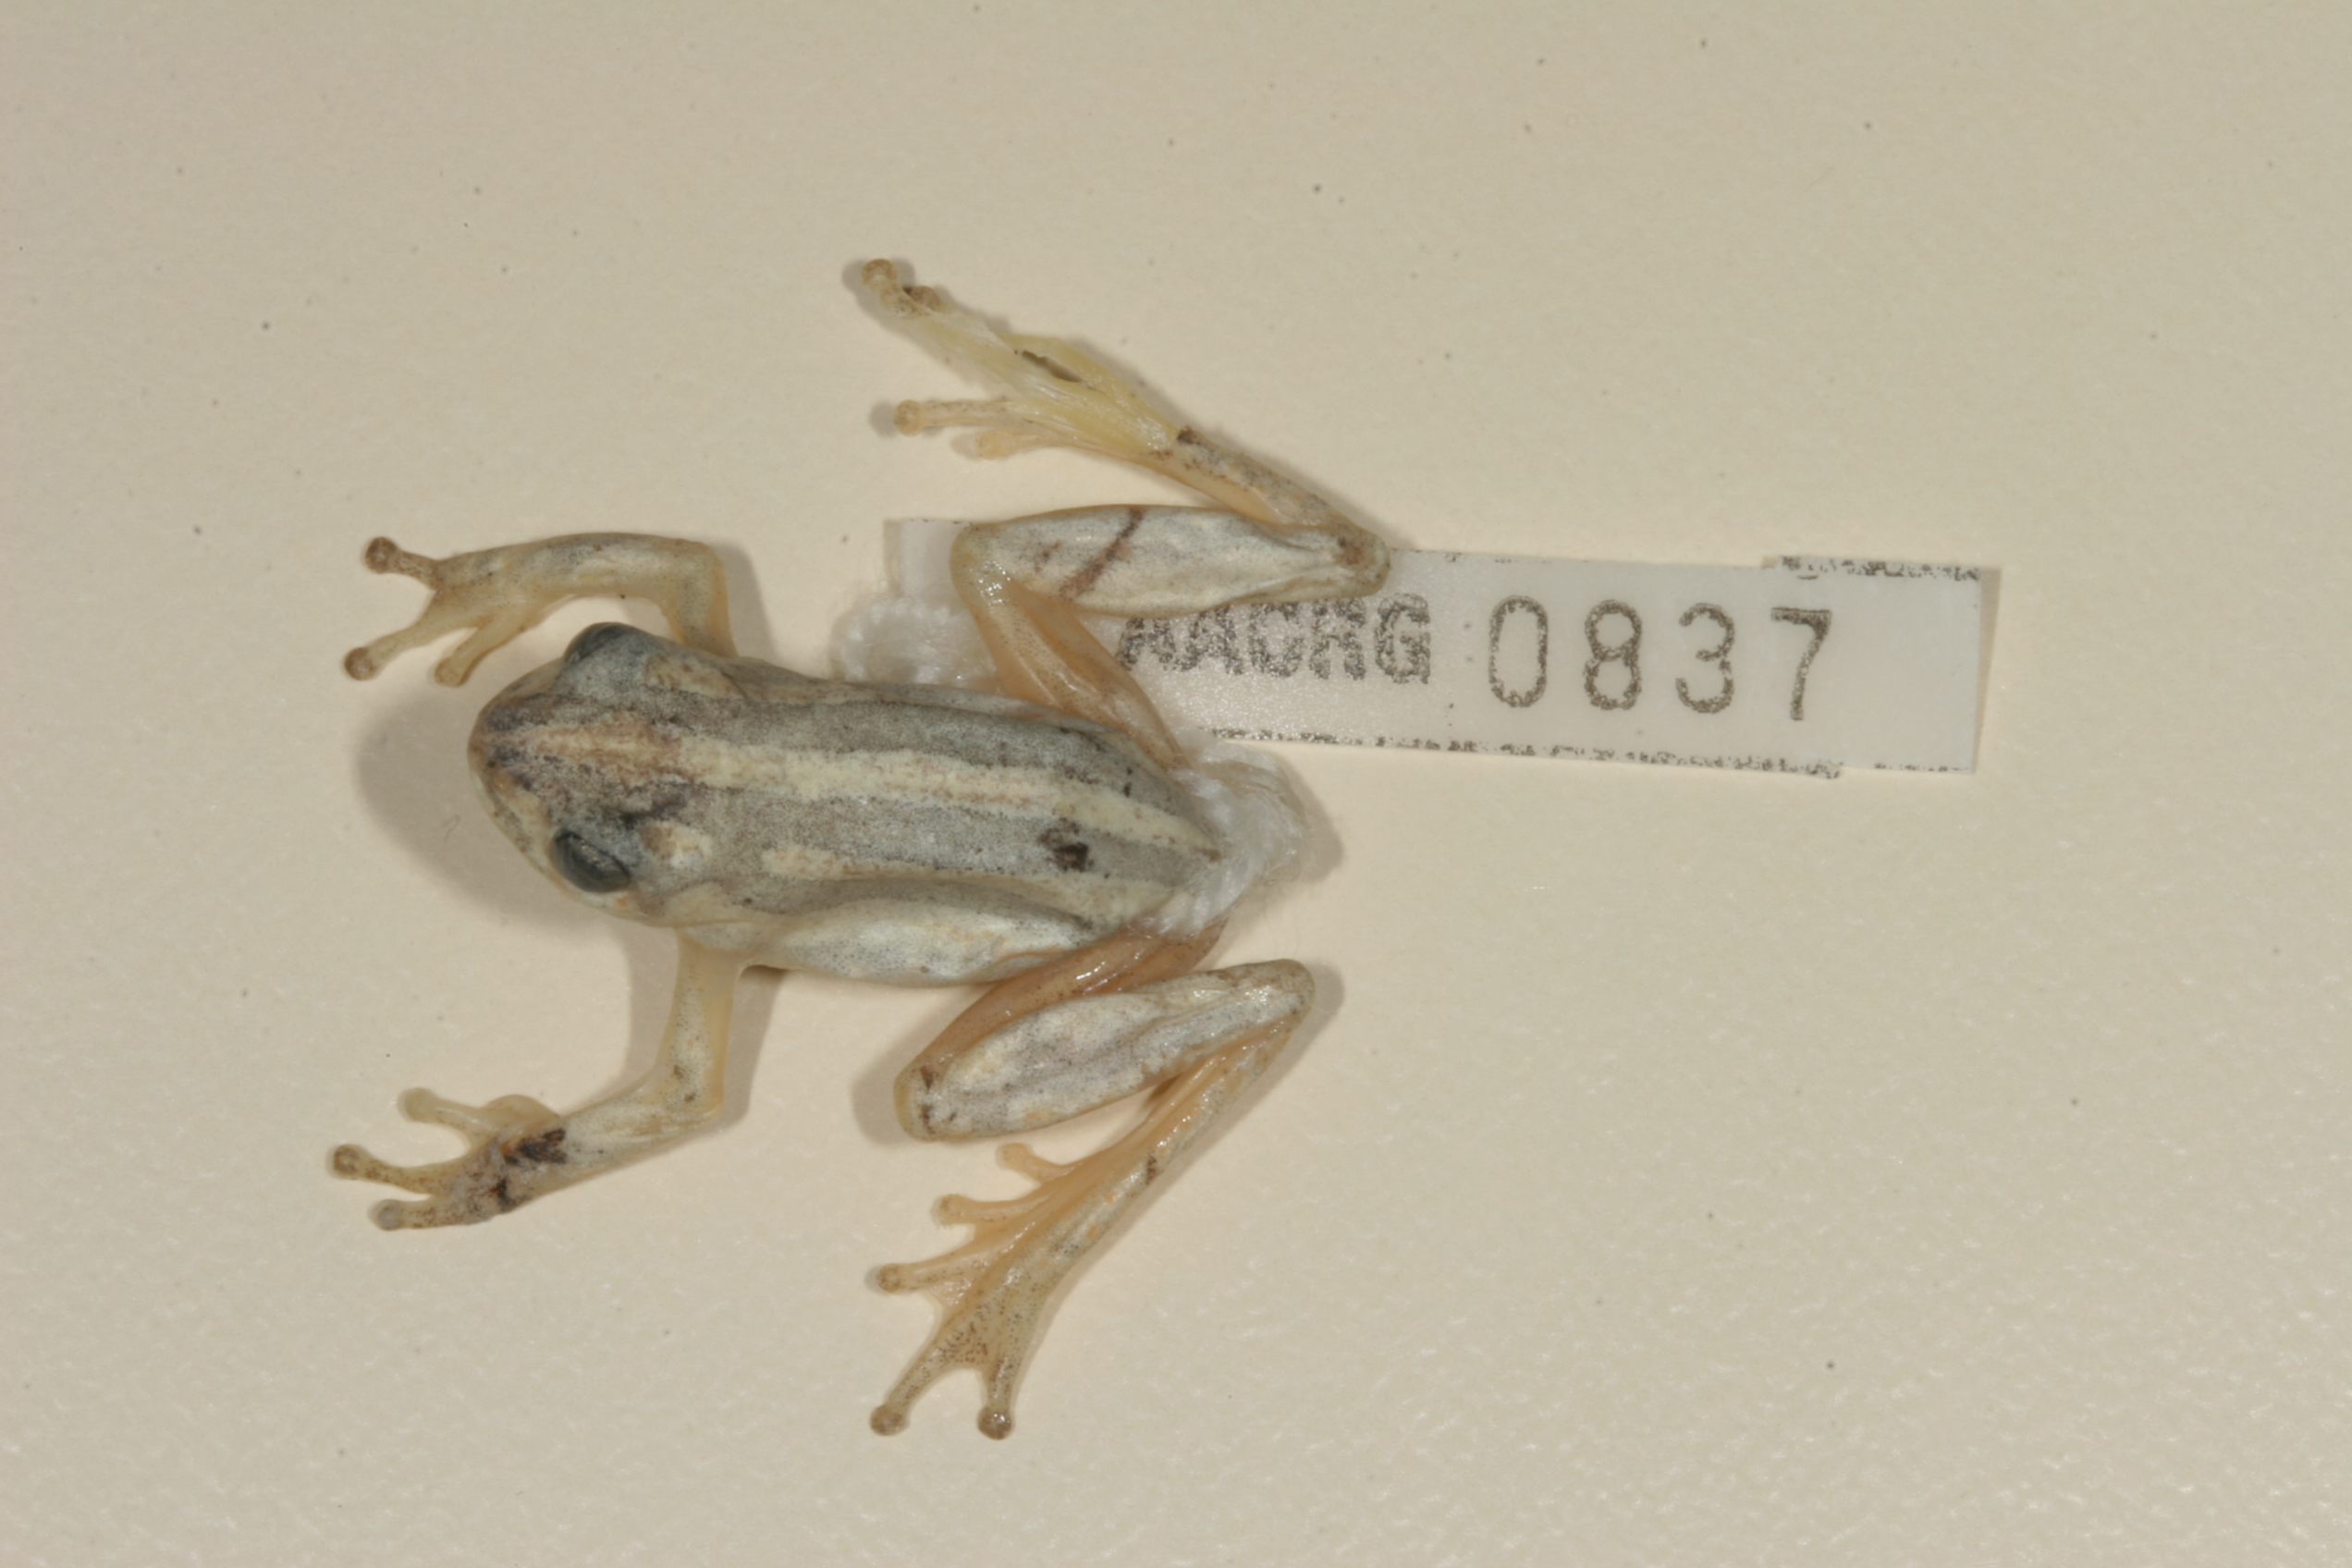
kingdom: Animalia
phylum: Chordata
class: Amphibia
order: Anura
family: Hyperoliidae
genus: Hyperolius
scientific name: Hyperolius marmoratus
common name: Painted reed frog
